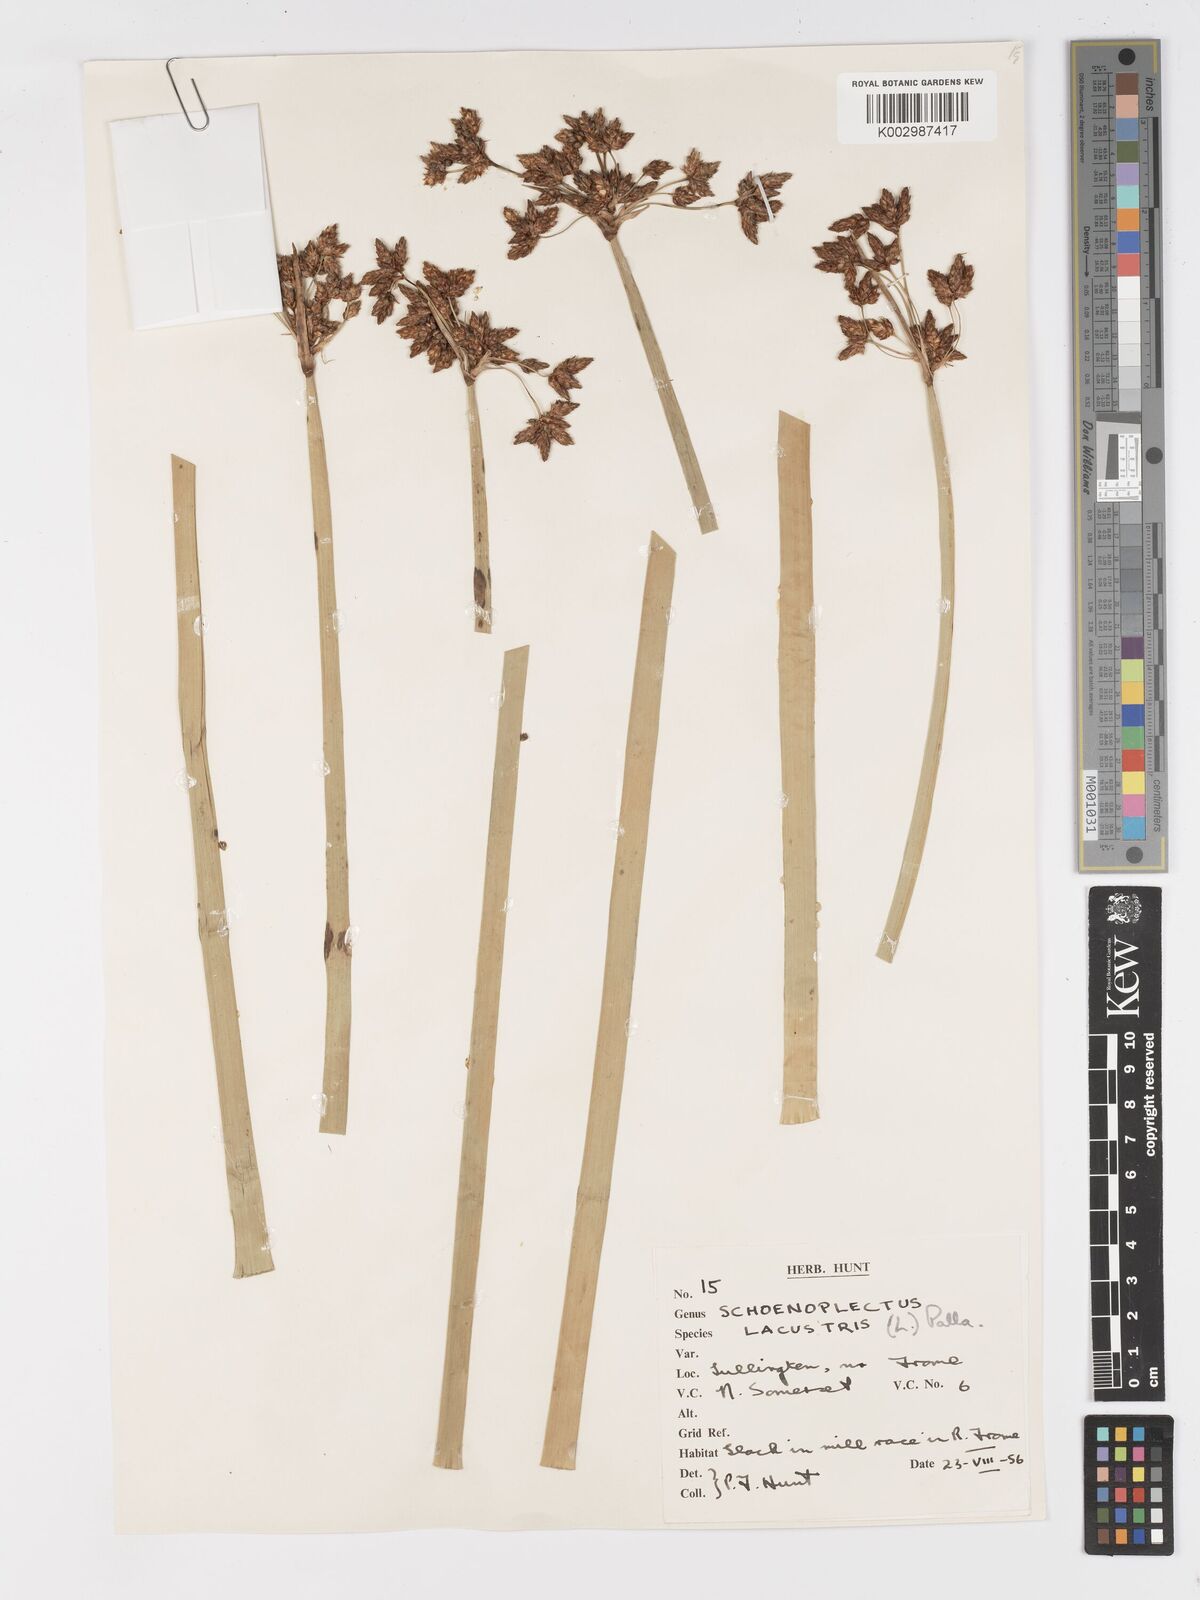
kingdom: Plantae
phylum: Tracheophyta
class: Liliopsida
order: Poales
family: Cyperaceae
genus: Schoenoplectus
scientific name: Schoenoplectus lacustris
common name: Common club-rush
